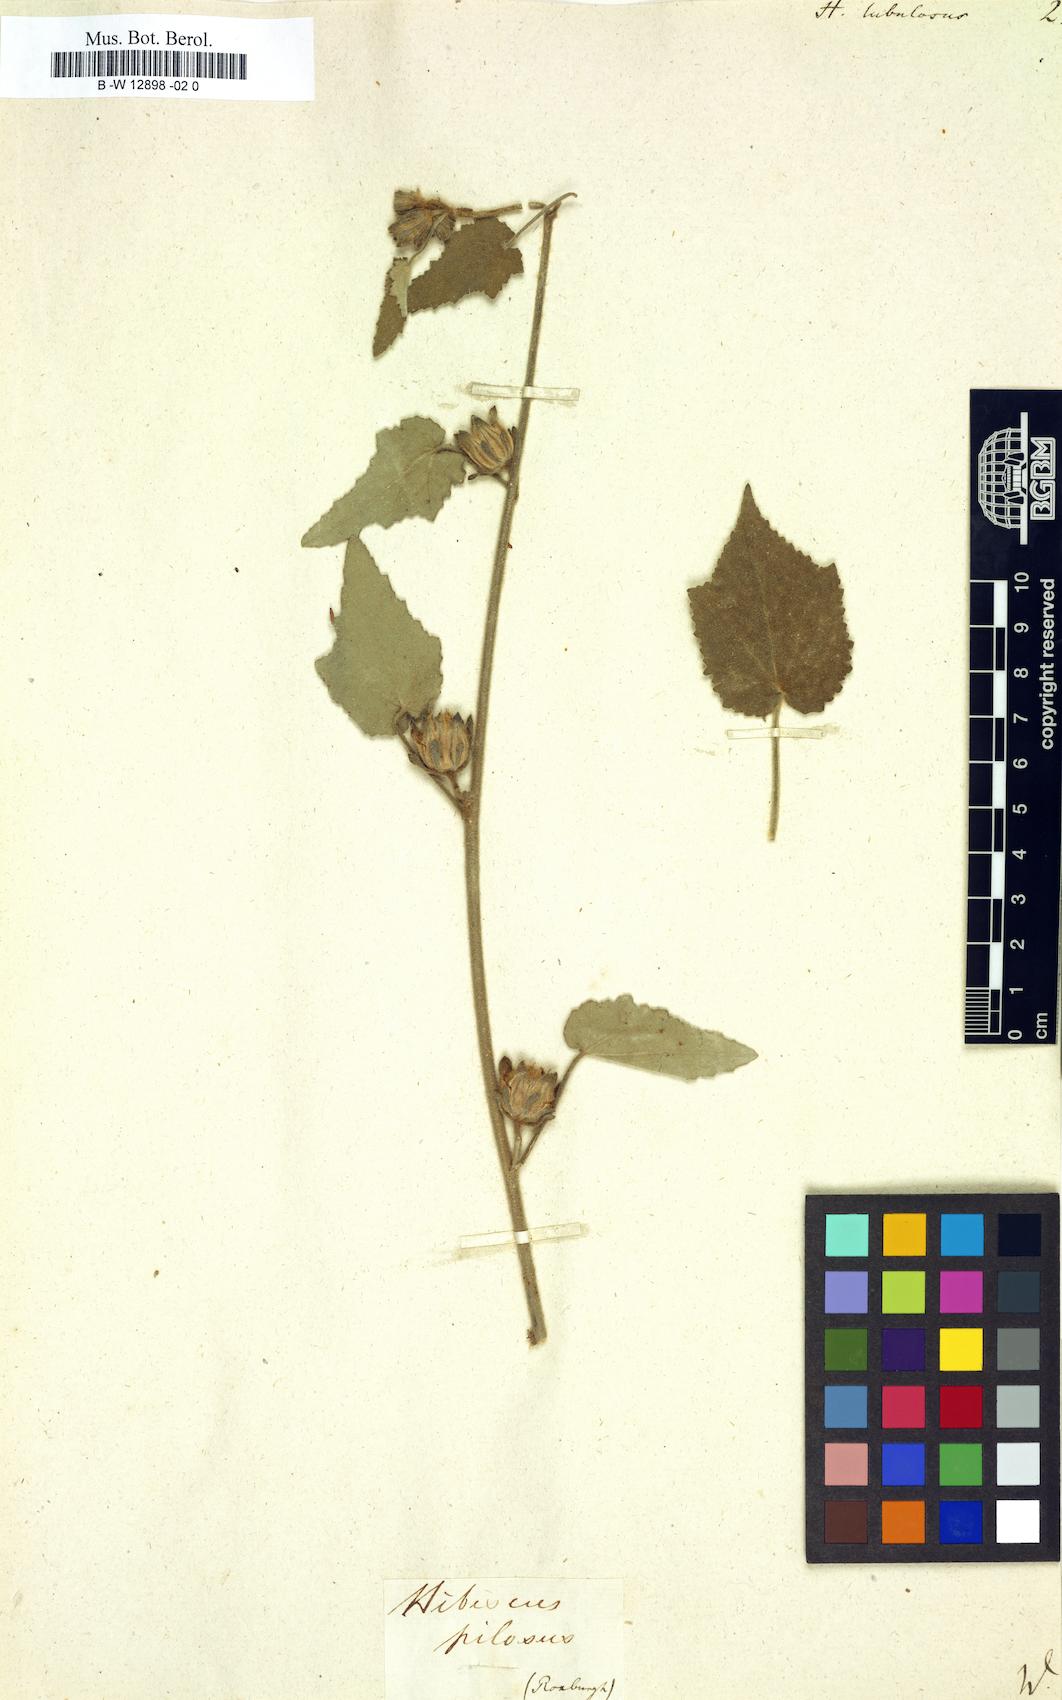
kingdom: Plantae
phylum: Tracheophyta
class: Magnoliopsida
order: Malvales
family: Malvaceae
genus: Hibiscus
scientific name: Hibiscus panduriformis
